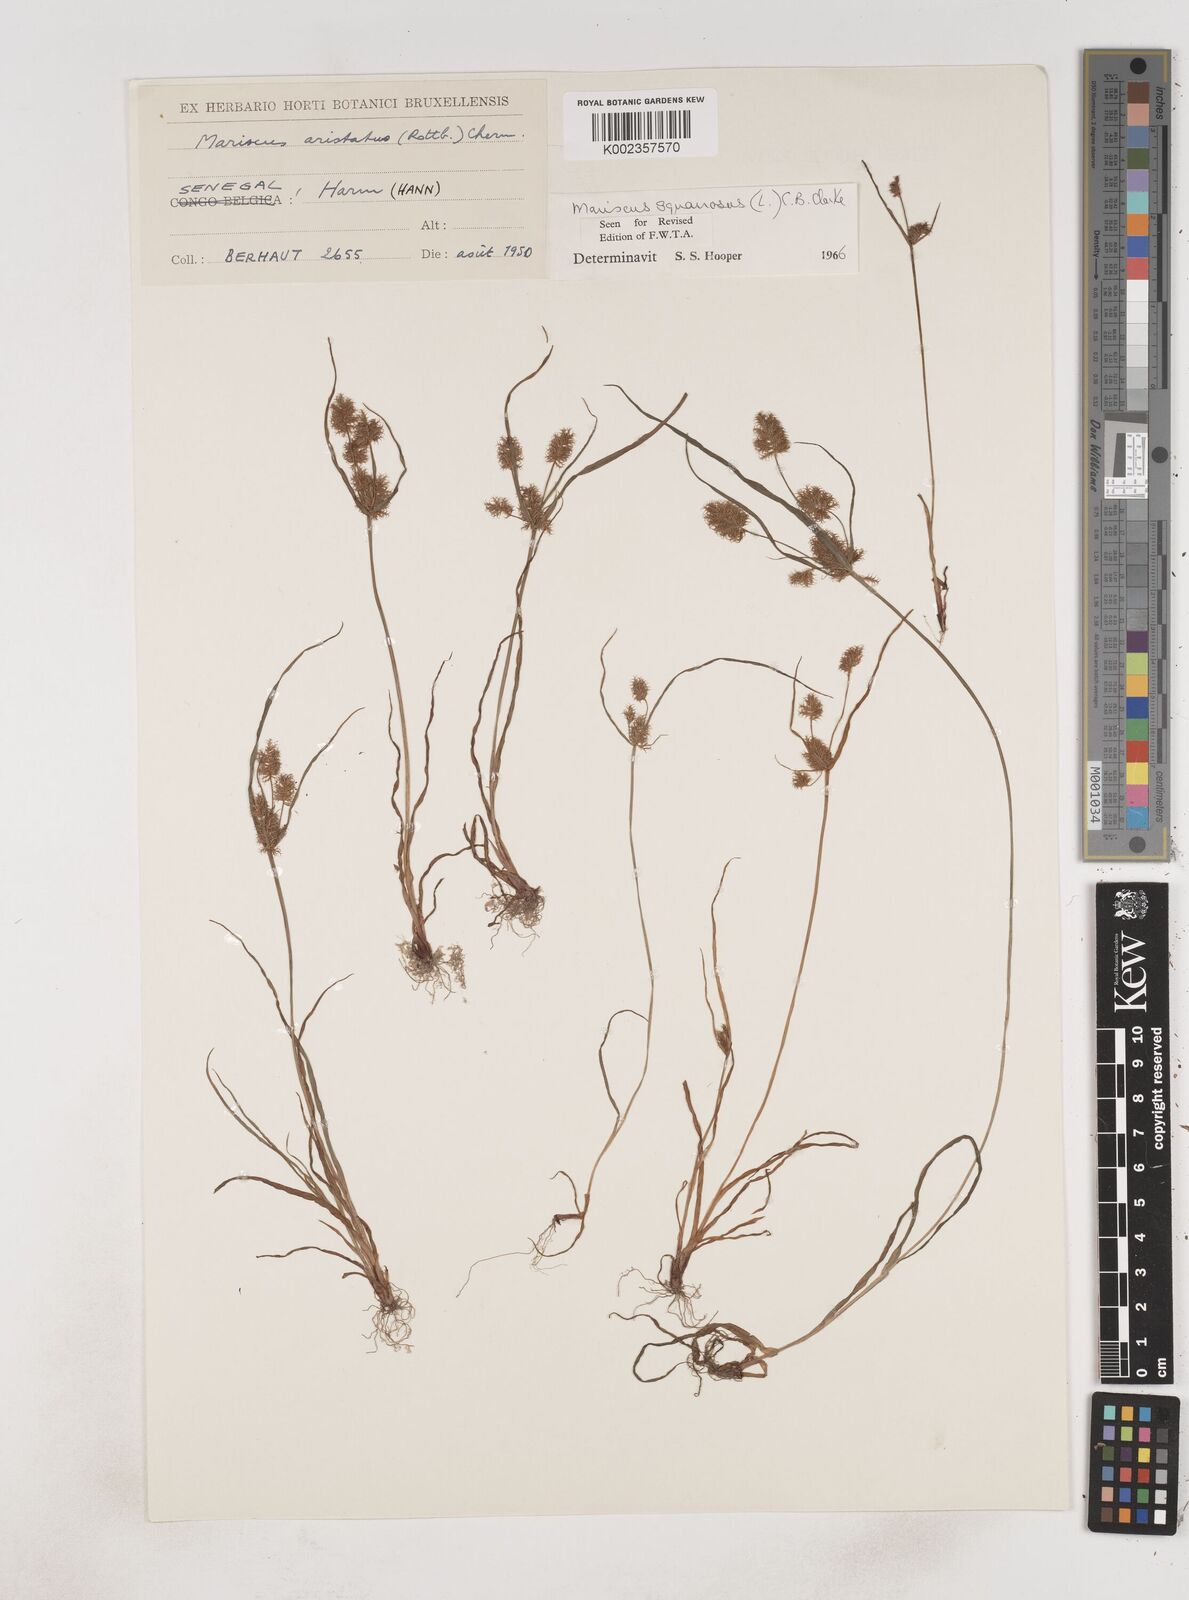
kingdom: Plantae
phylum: Tracheophyta
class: Liliopsida
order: Poales
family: Cyperaceae
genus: Cyperus
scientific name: Cyperus squarrosus
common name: Awned cyperus
